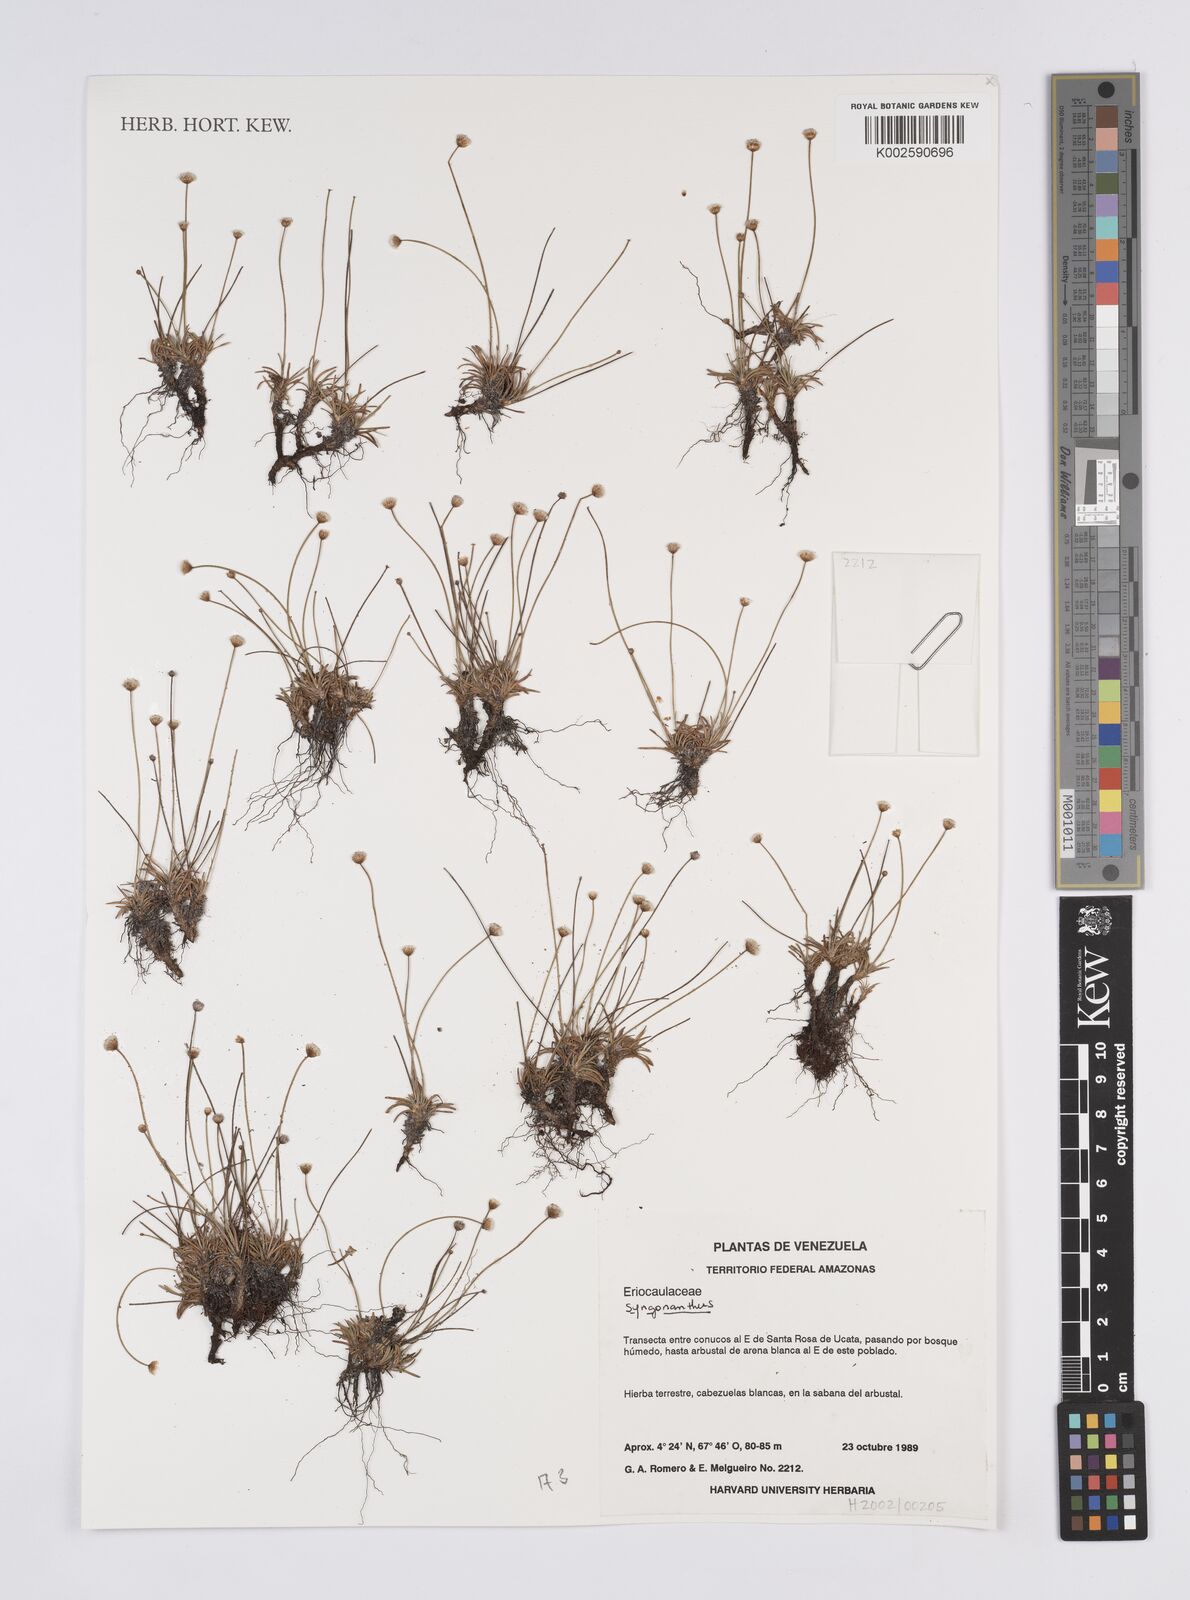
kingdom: Plantae
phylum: Tracheophyta
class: Liliopsida
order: Poales
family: Eriocaulaceae
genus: Syngonanthus
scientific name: Syngonanthus
